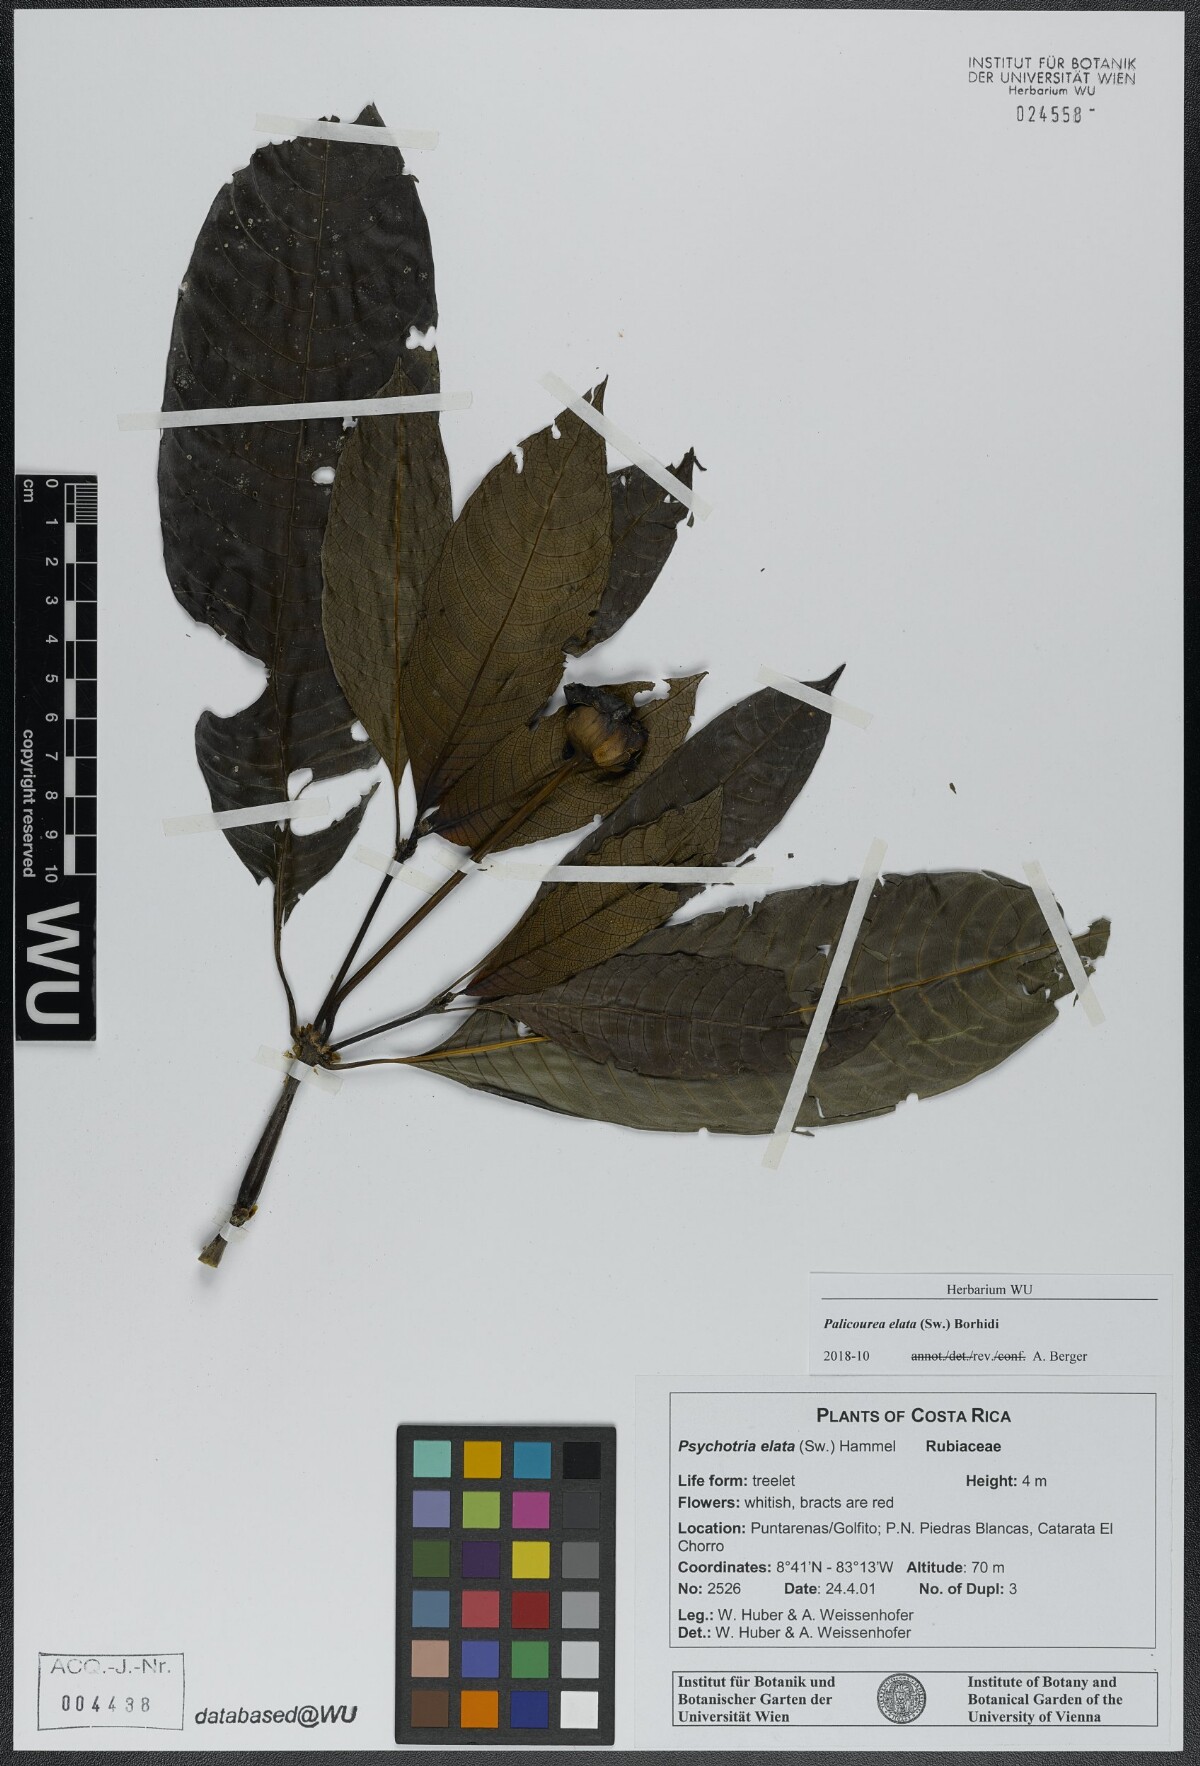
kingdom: Plantae
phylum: Tracheophyta
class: Magnoliopsida
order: Gentianales
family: Rubiaceae
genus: Palicourea
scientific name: Palicourea elata
